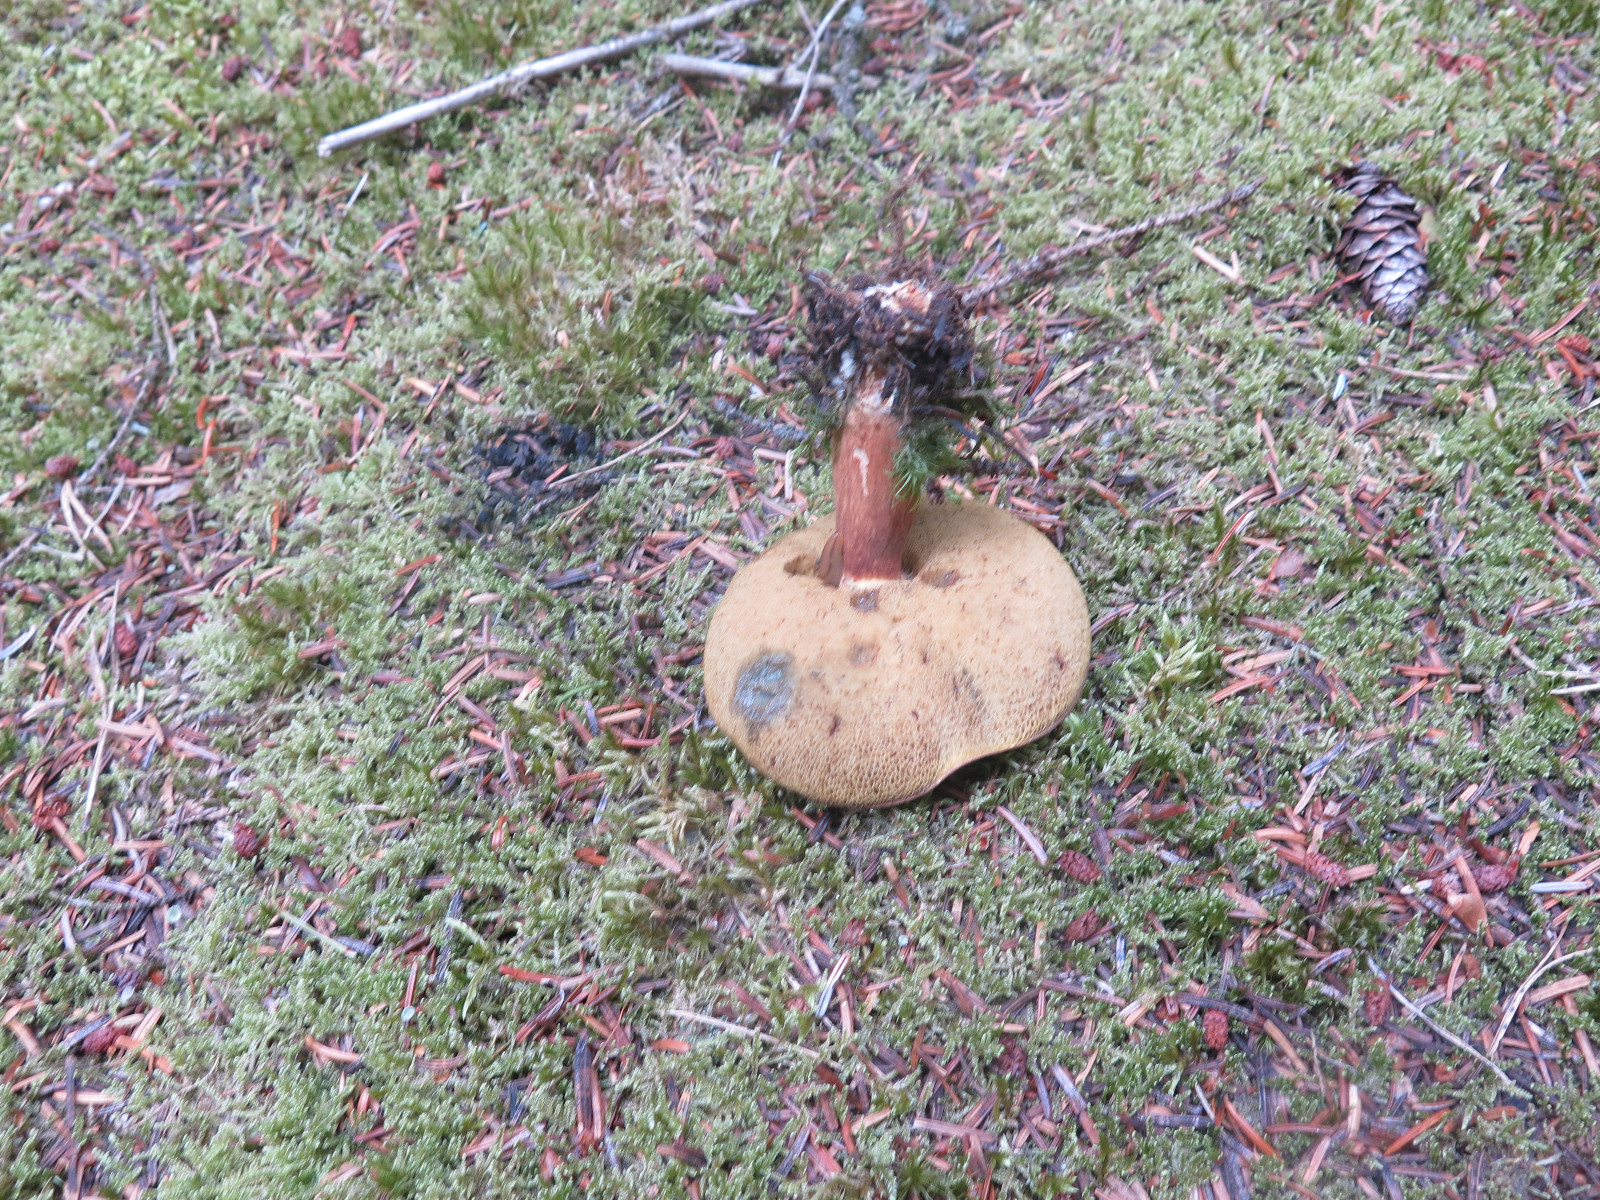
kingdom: Fungi
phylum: Basidiomycota
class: Agaricomycetes
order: Boletales
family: Boletaceae
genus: Imleria
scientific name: Imleria badia
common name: brunstokket rørhat
